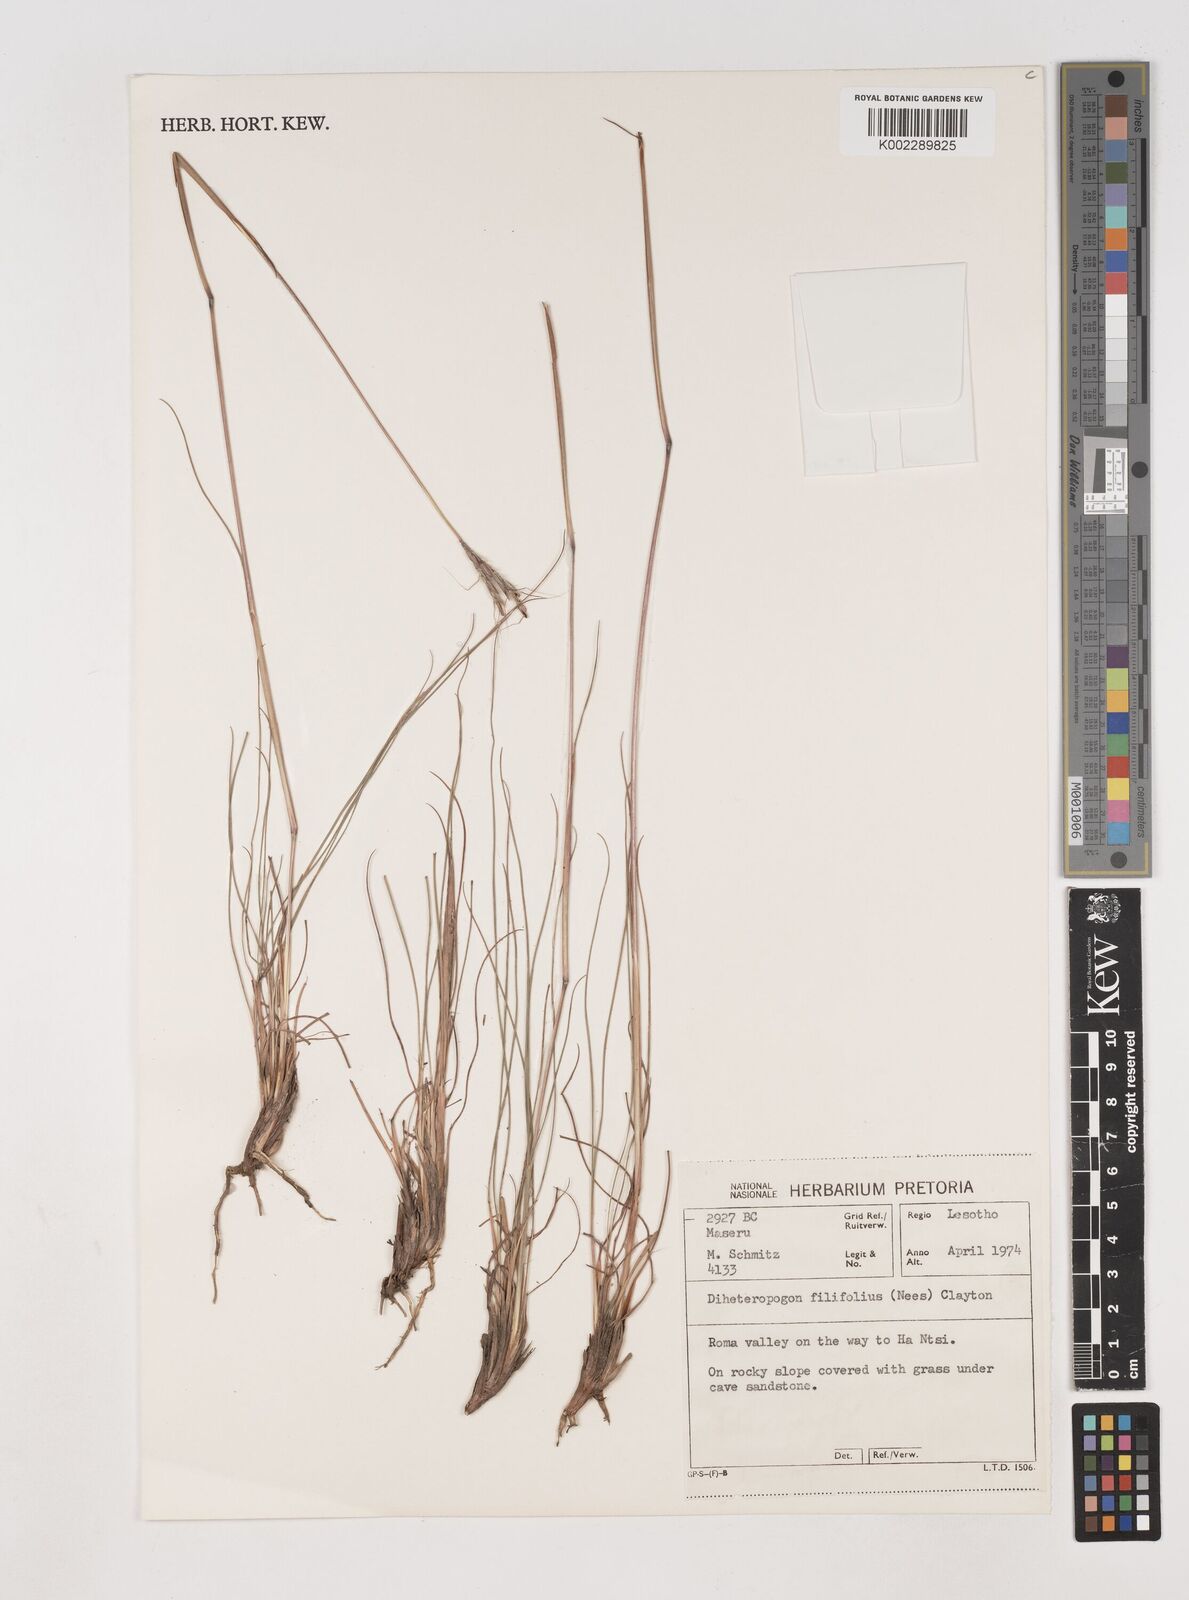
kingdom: Plantae
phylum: Tracheophyta
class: Liliopsida
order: Poales
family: Poaceae
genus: Diheteropogon
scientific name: Diheteropogon filifolius
